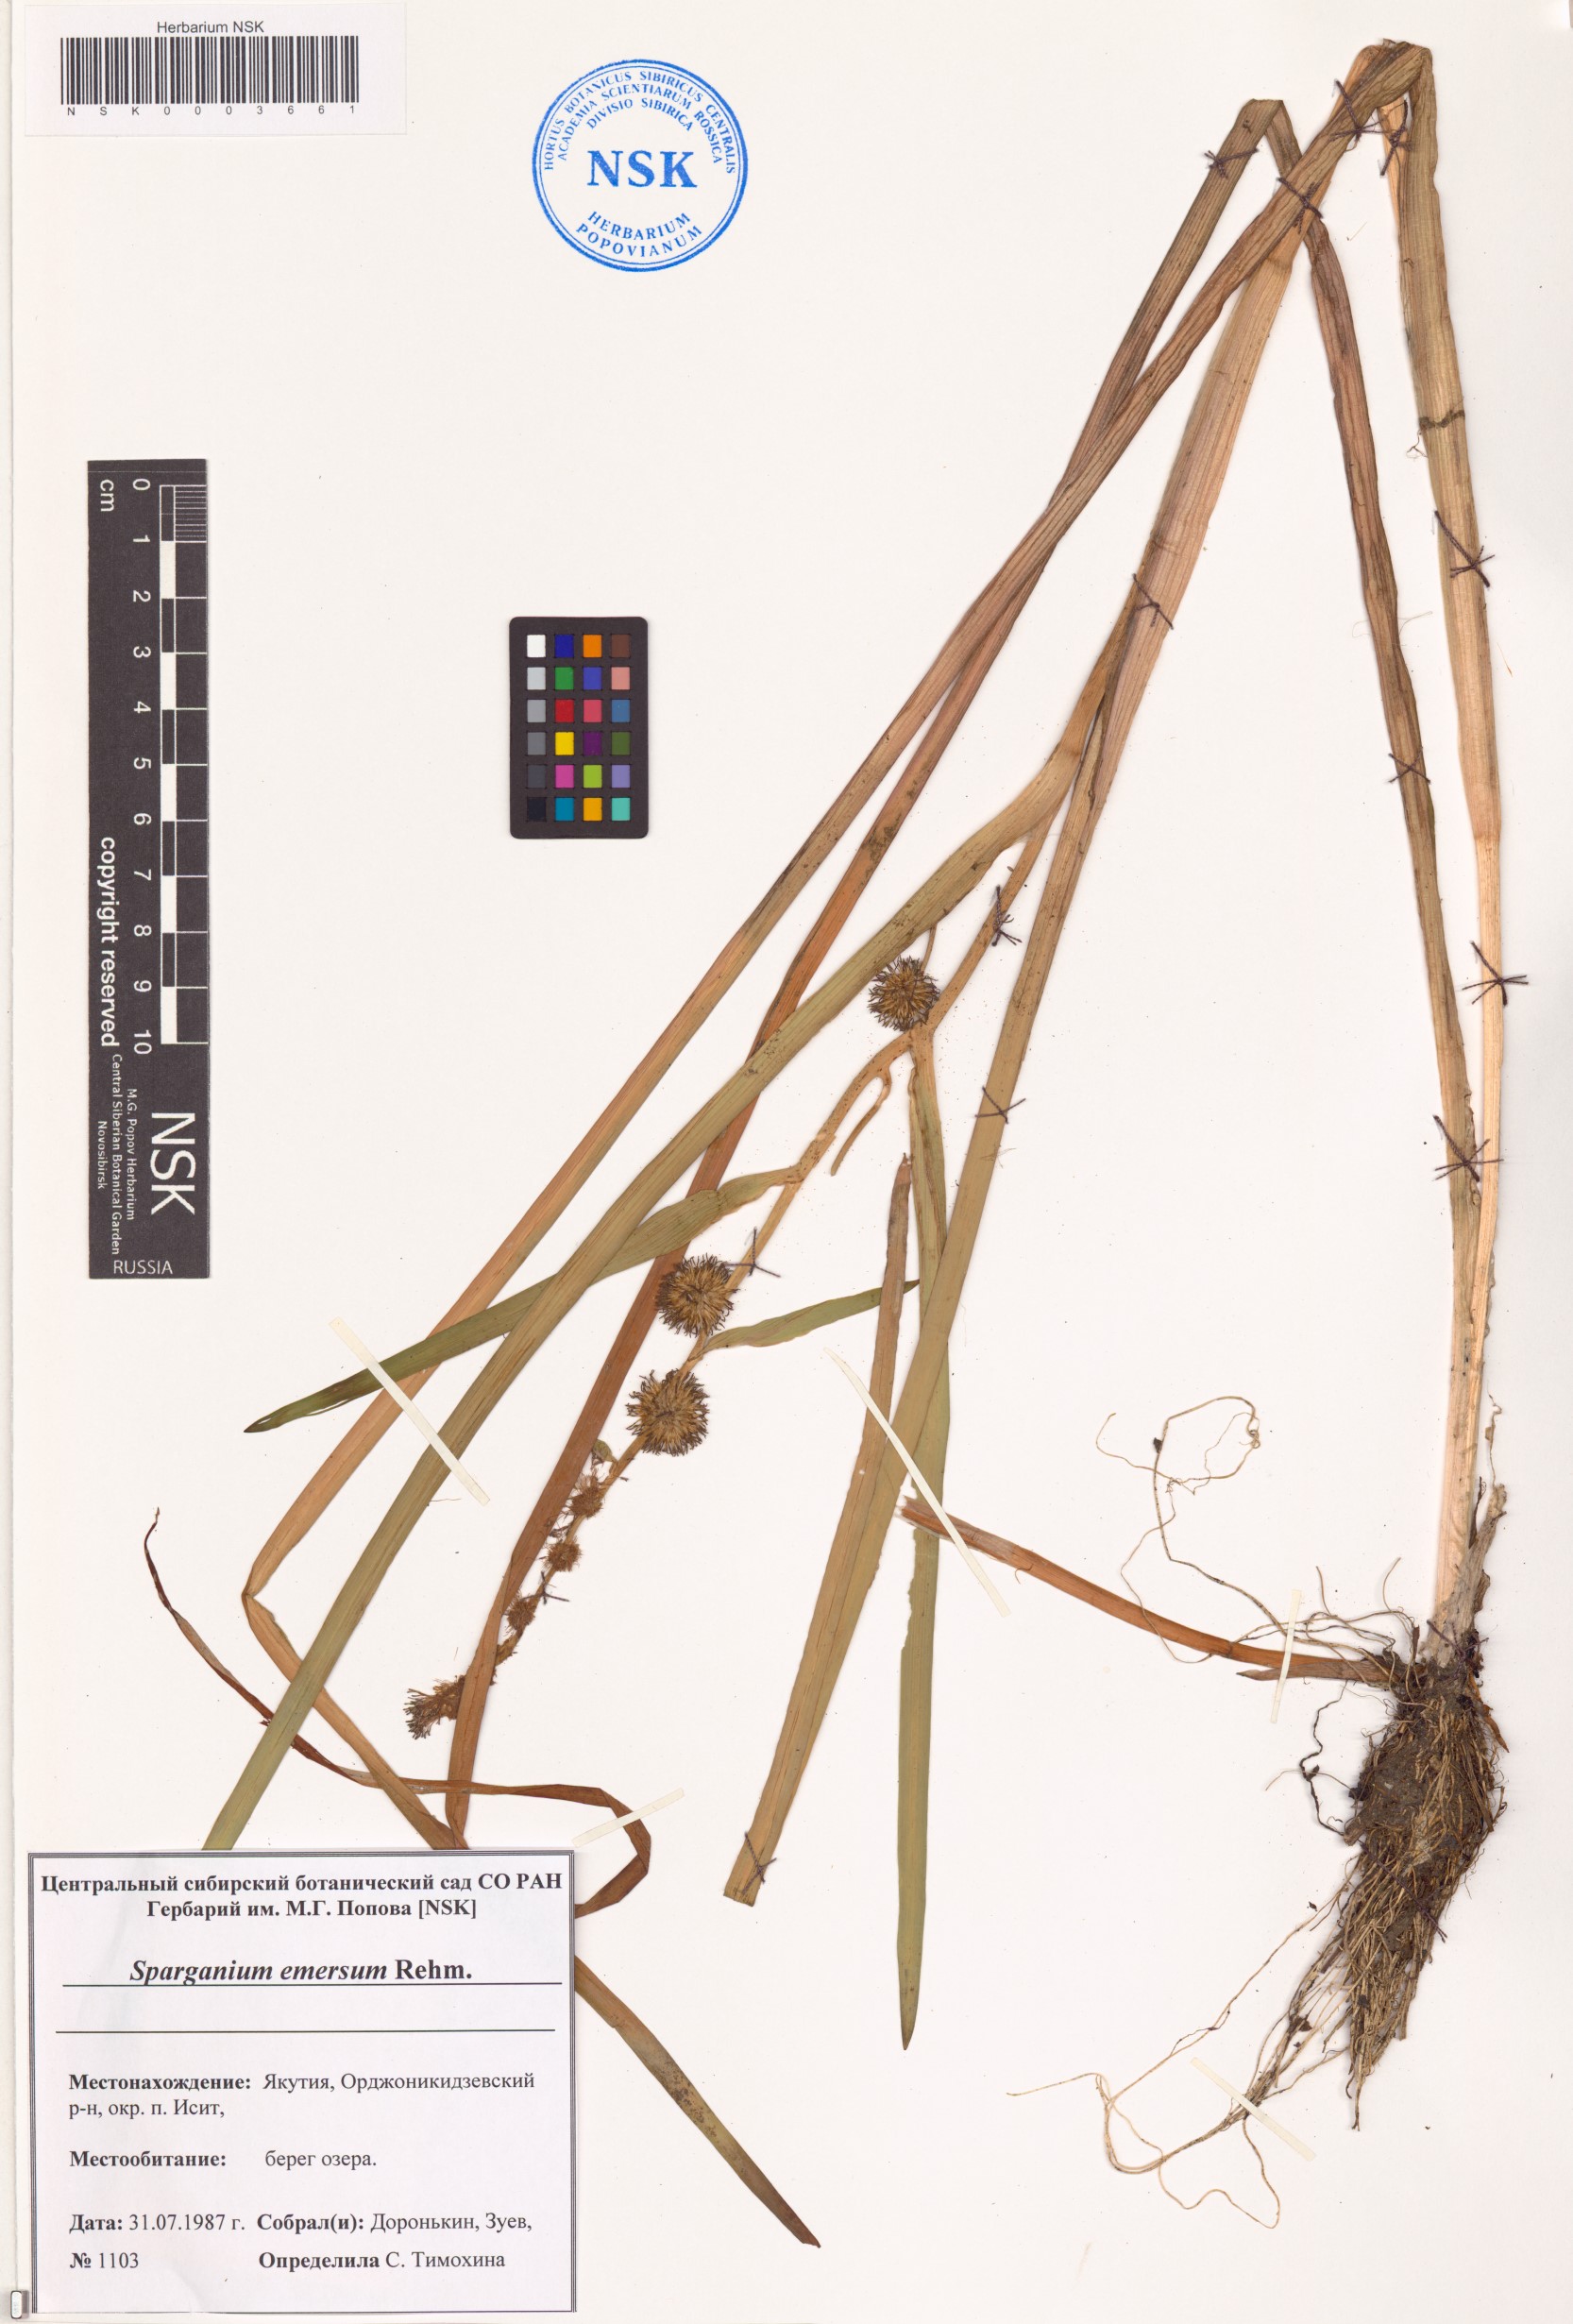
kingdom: Plantae
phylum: Tracheophyta
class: Liliopsida
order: Poales
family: Typhaceae
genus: Sparganium
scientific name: Sparganium emersum
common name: Unbranched bur-reed
